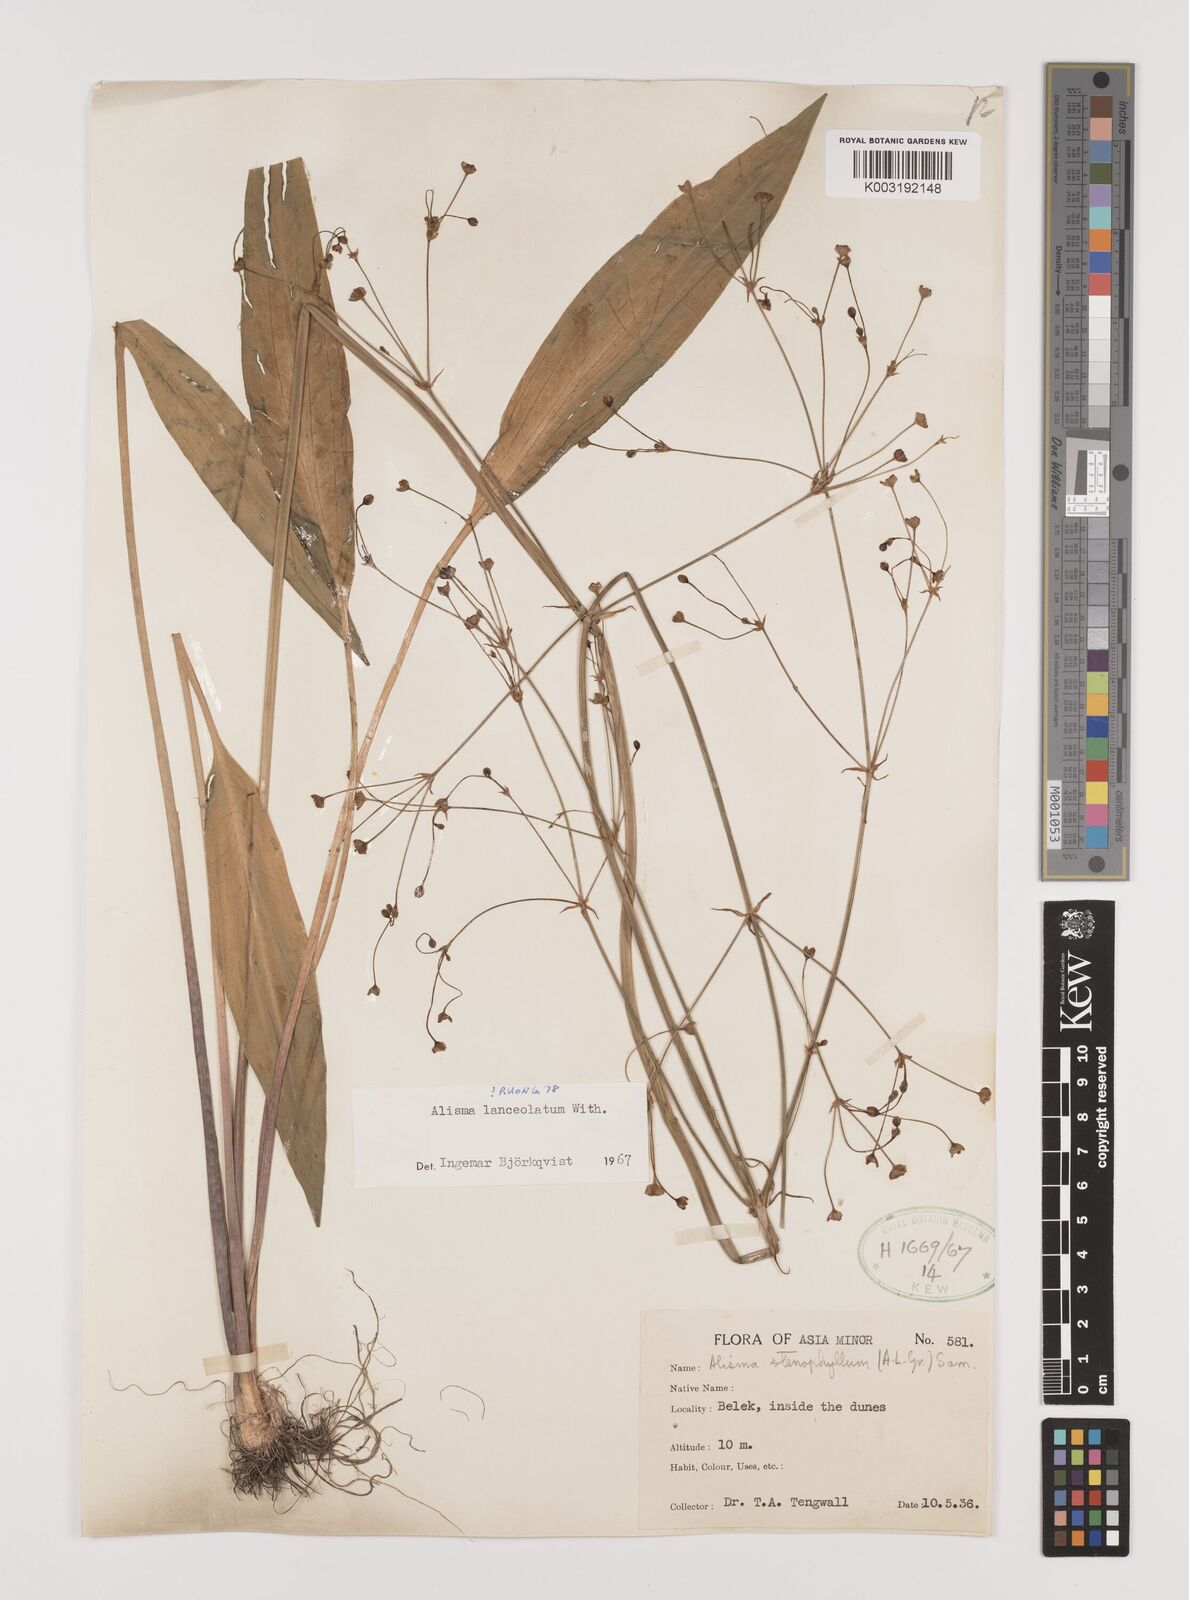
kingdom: Plantae
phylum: Tracheophyta
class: Liliopsida
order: Alismatales
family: Alismataceae
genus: Alisma
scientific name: Alisma lanceolatum
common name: Narrow-leaved water-plantain
